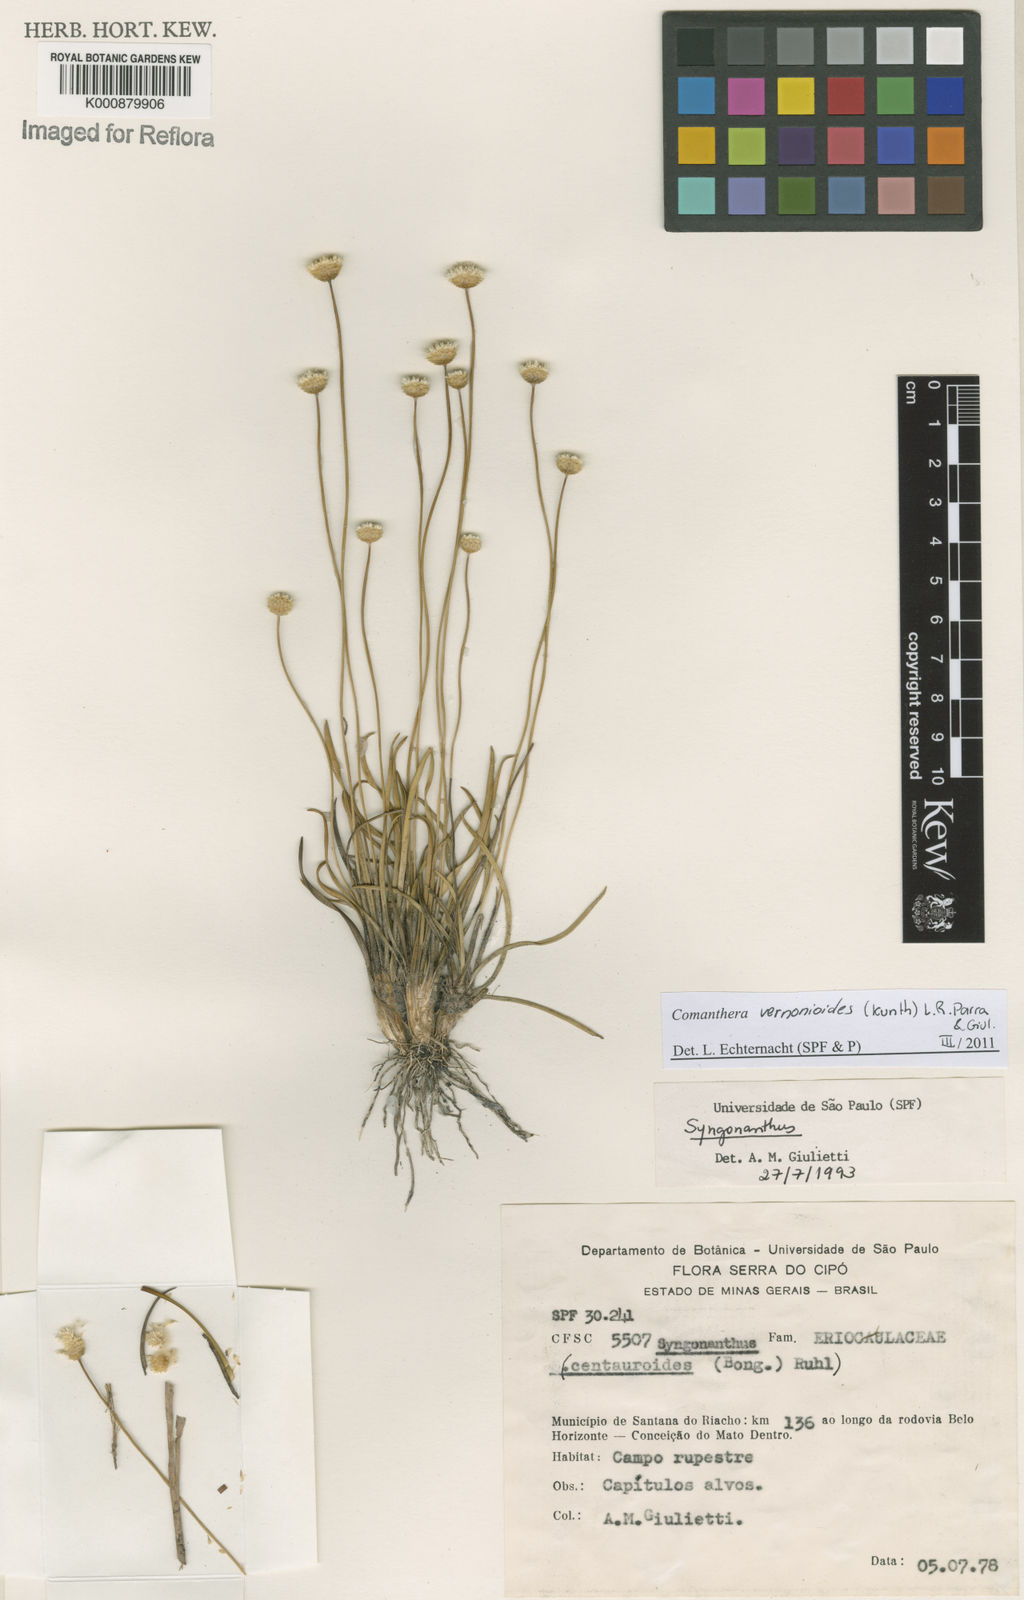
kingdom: Plantae
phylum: Tracheophyta
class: Liliopsida
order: Poales
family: Eriocaulaceae
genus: Comanthera
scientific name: Comanthera centauroides
